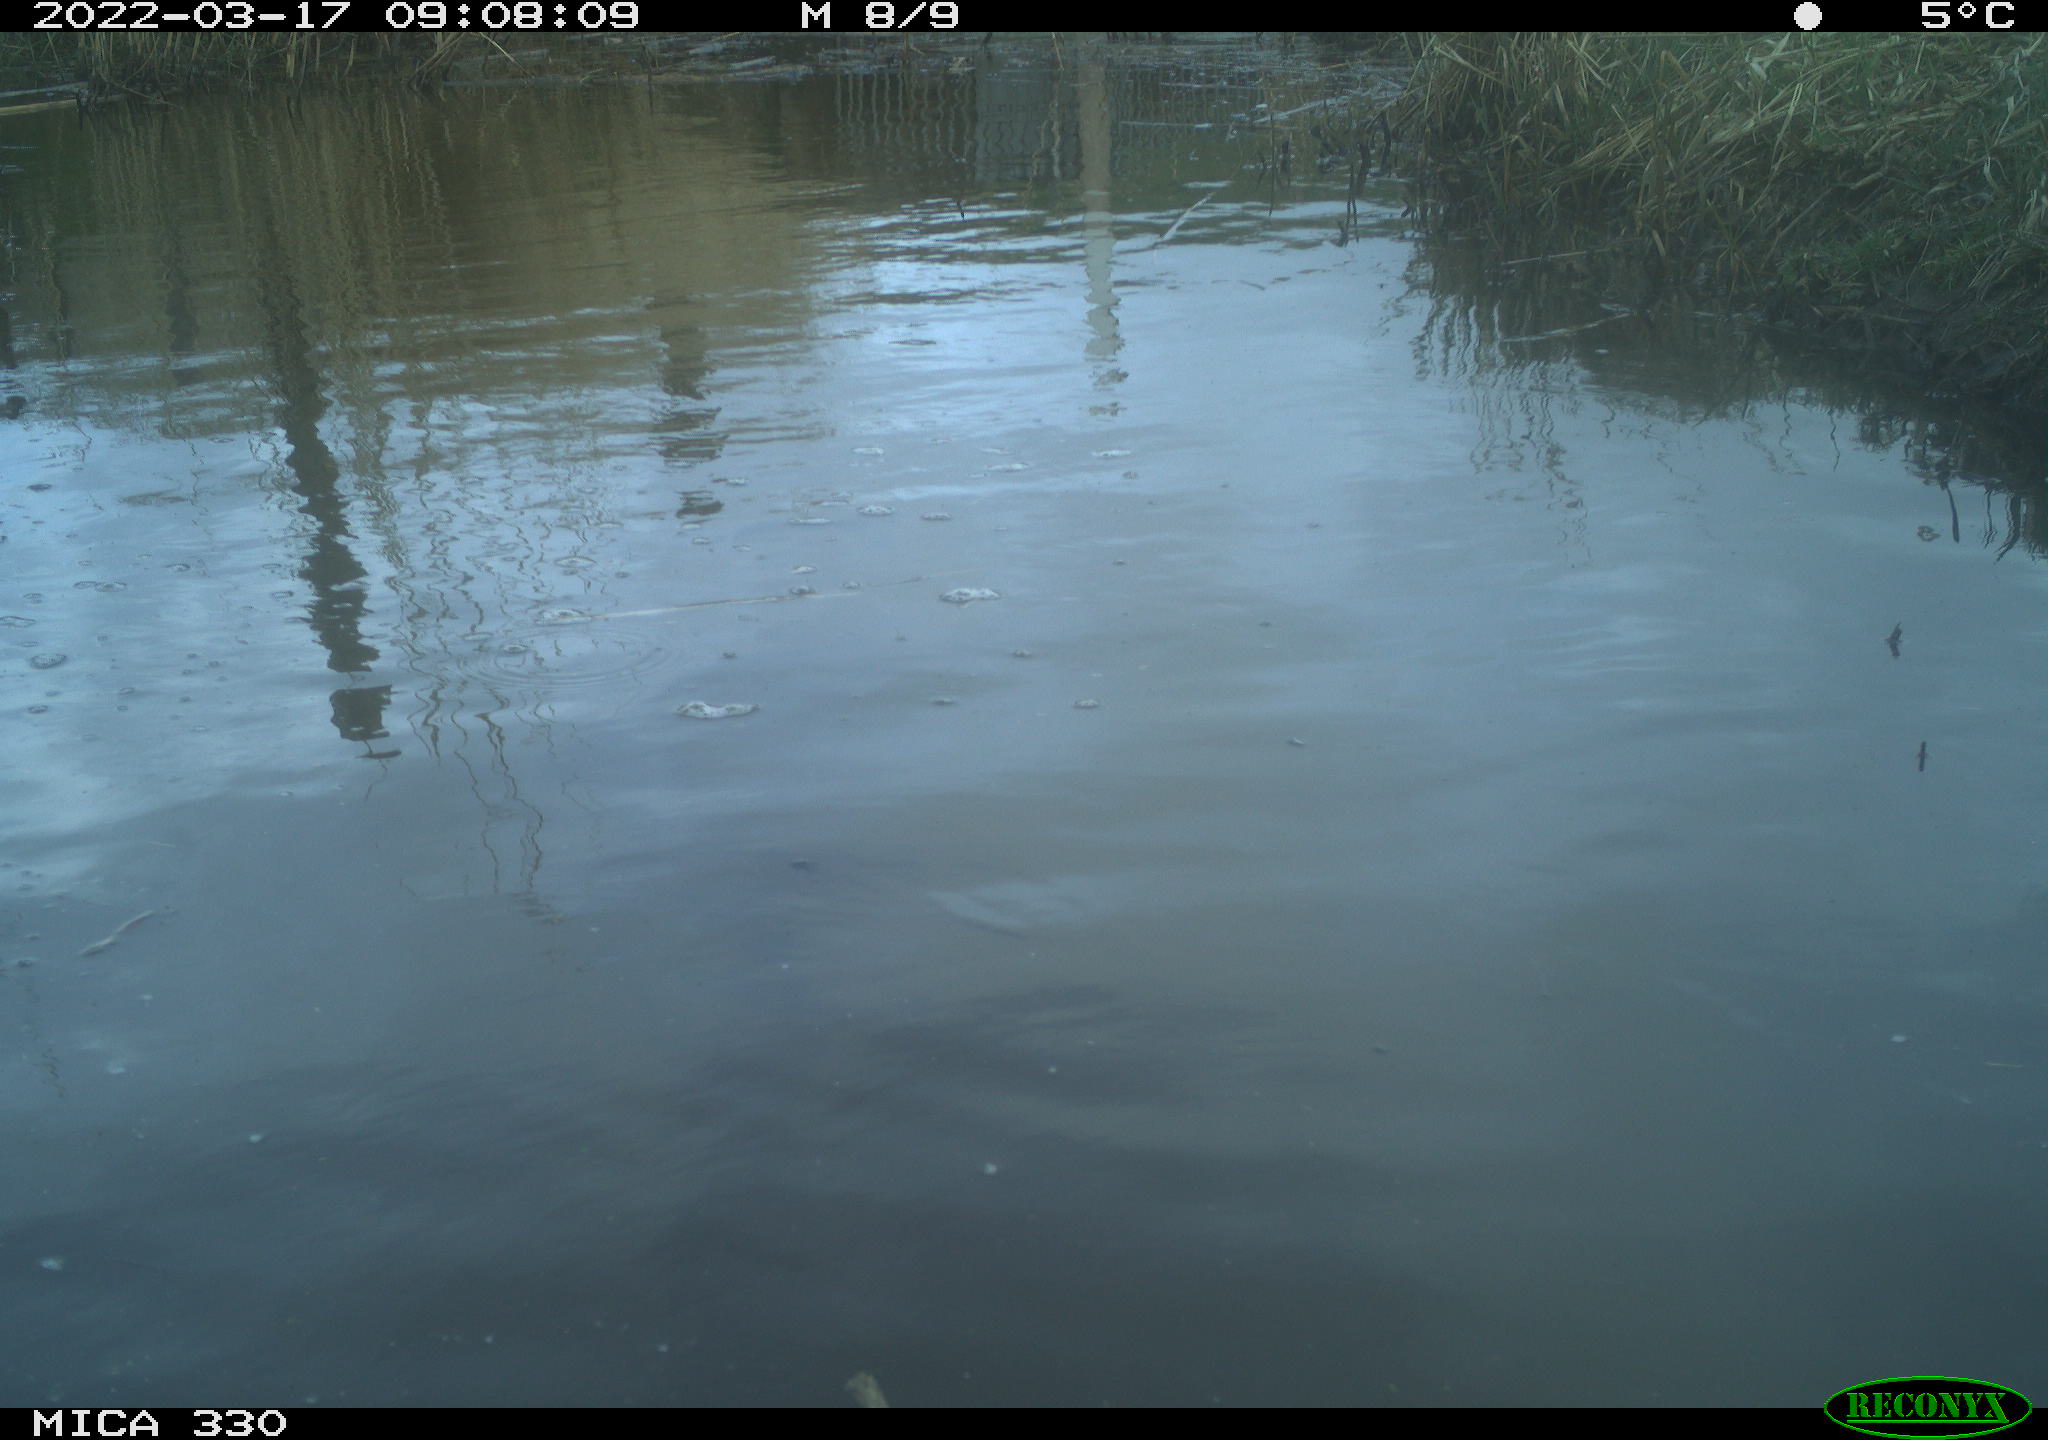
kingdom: Animalia
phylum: Chordata
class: Aves
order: Anseriformes
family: Anatidae
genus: Anas
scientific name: Anas platyrhynchos
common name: Mallard
